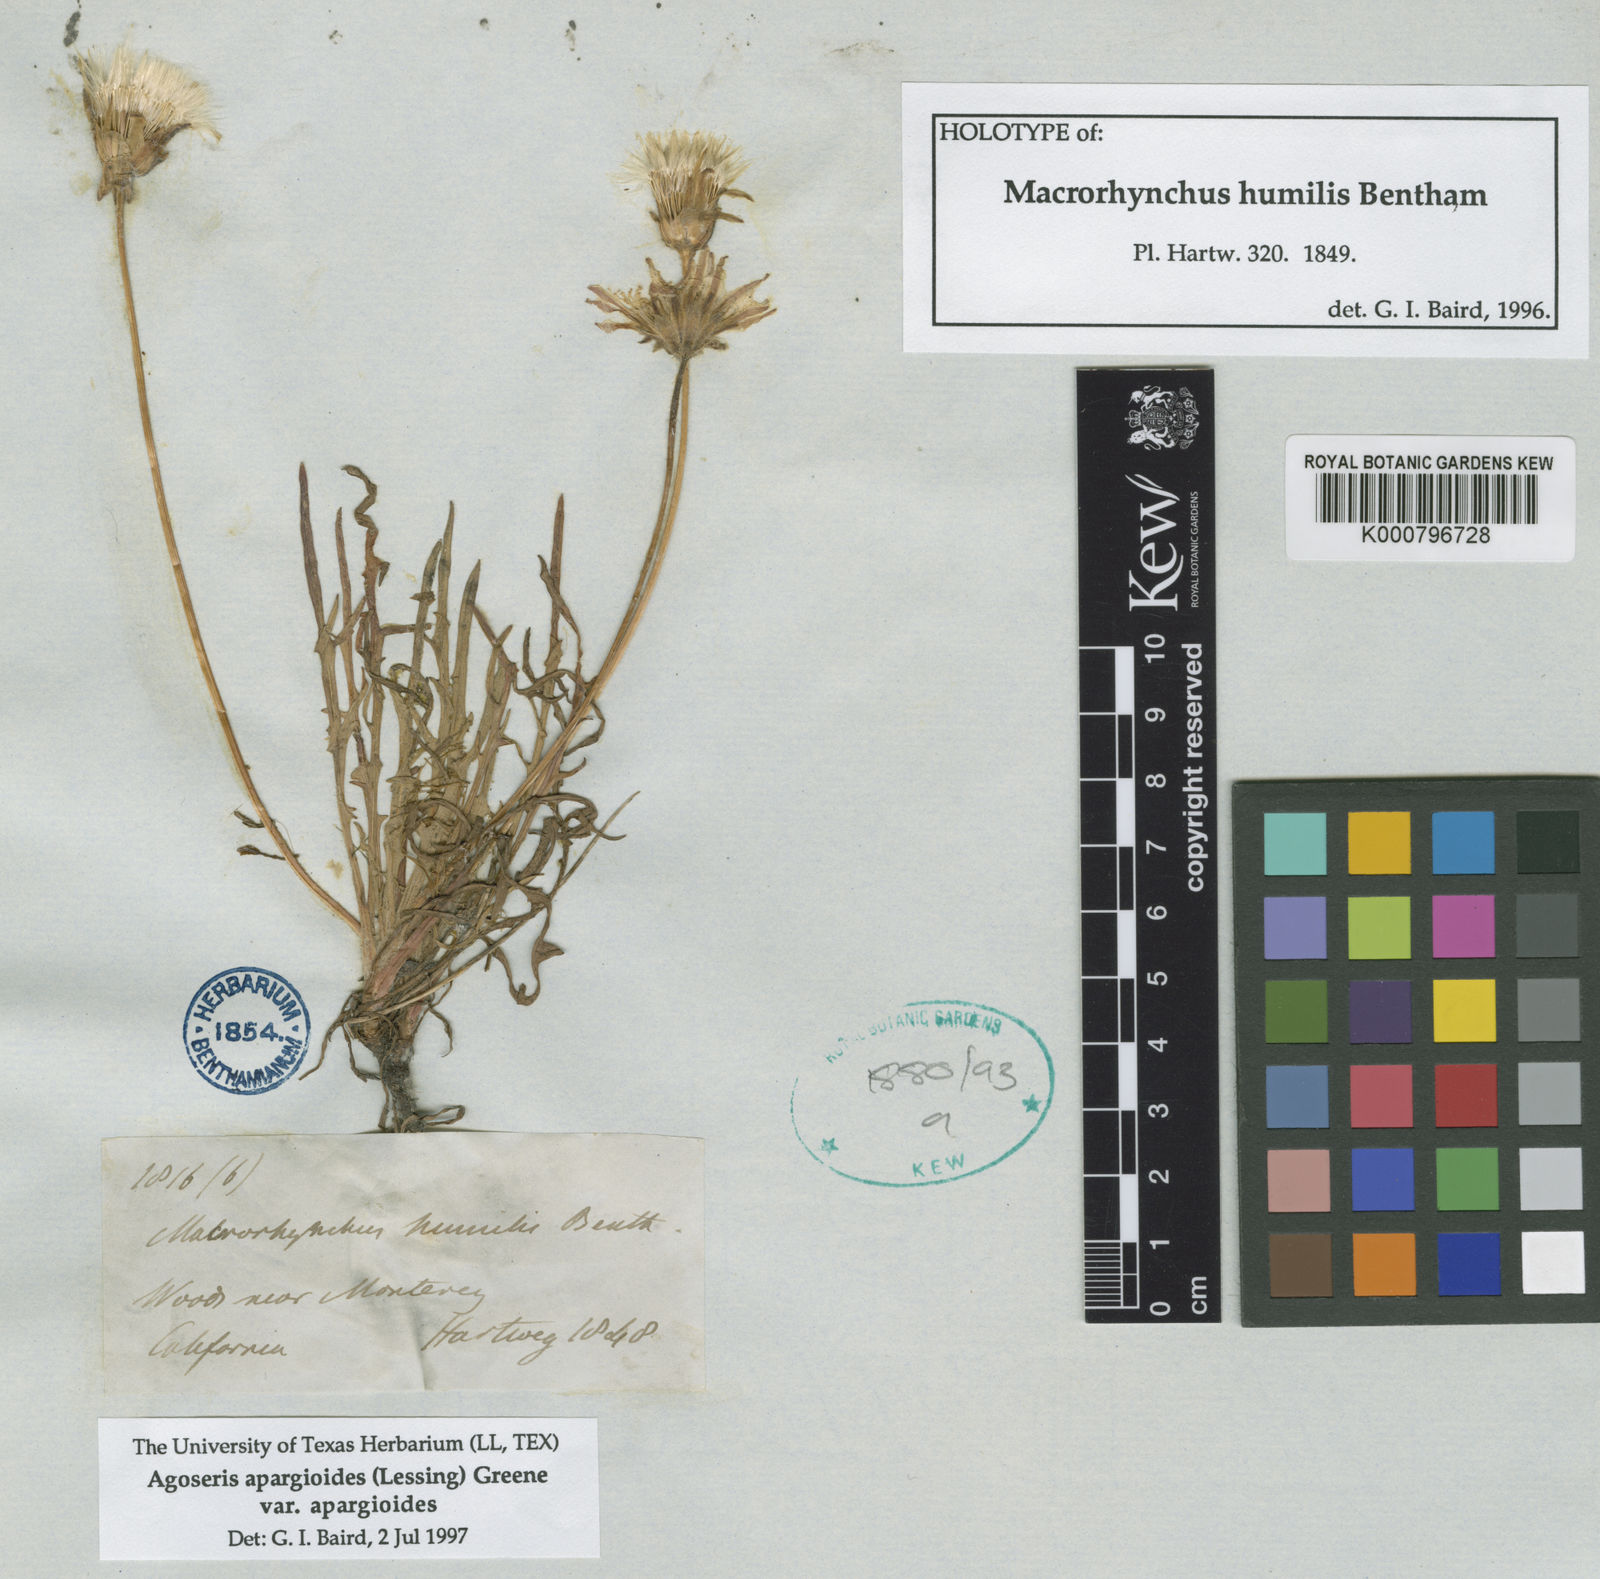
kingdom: Plantae
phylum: Tracheophyta
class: Magnoliopsida
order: Asterales
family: Asteraceae
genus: Agoseris
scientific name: Agoseris hirsuta
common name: Coast range agoseris
